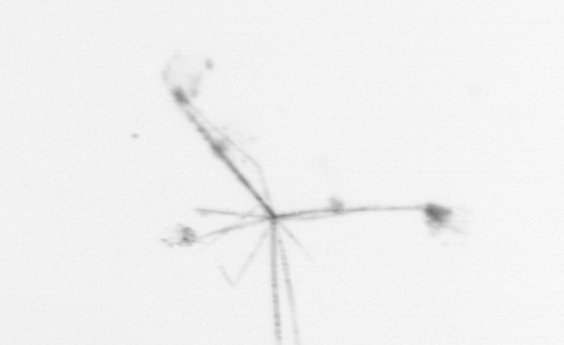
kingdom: Chromista
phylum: Ochrophyta
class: Bacillariophyceae
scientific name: Bacillariophyceae
